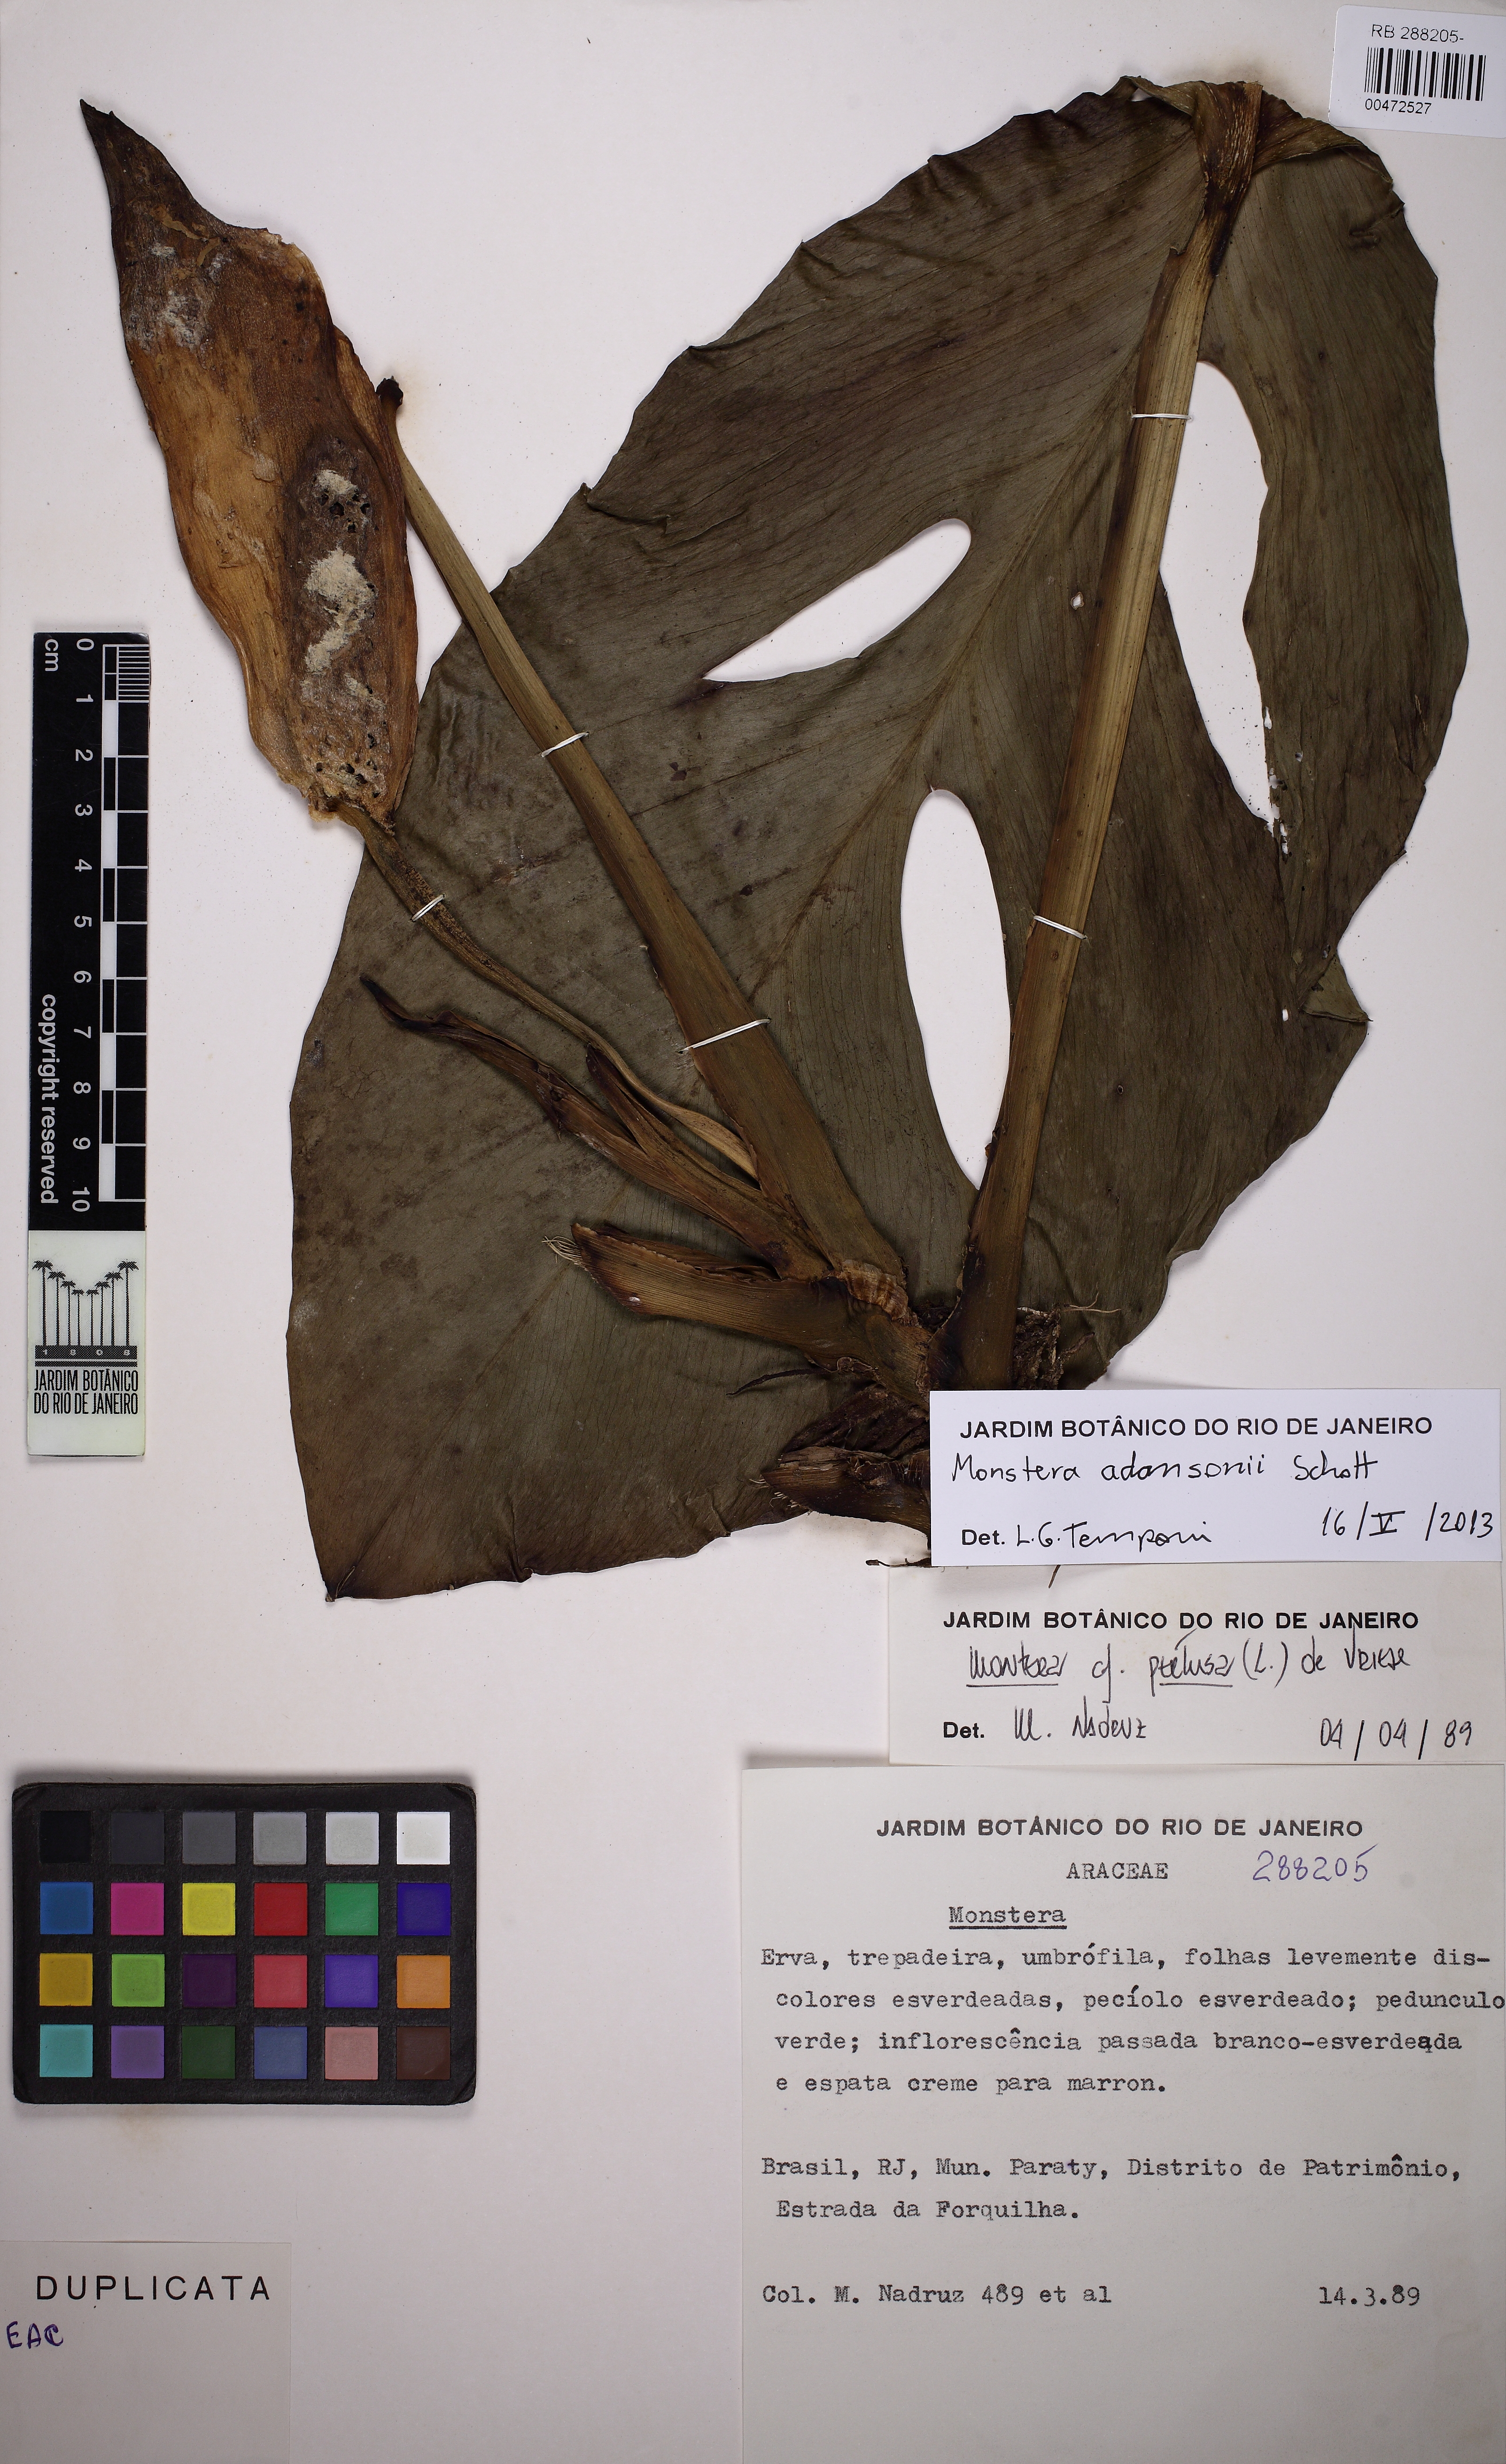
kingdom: Plantae
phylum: Tracheophyta
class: Liliopsida
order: Alismatales
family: Araceae
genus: Monstera
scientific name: Monstera adansonii
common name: Tarovine
